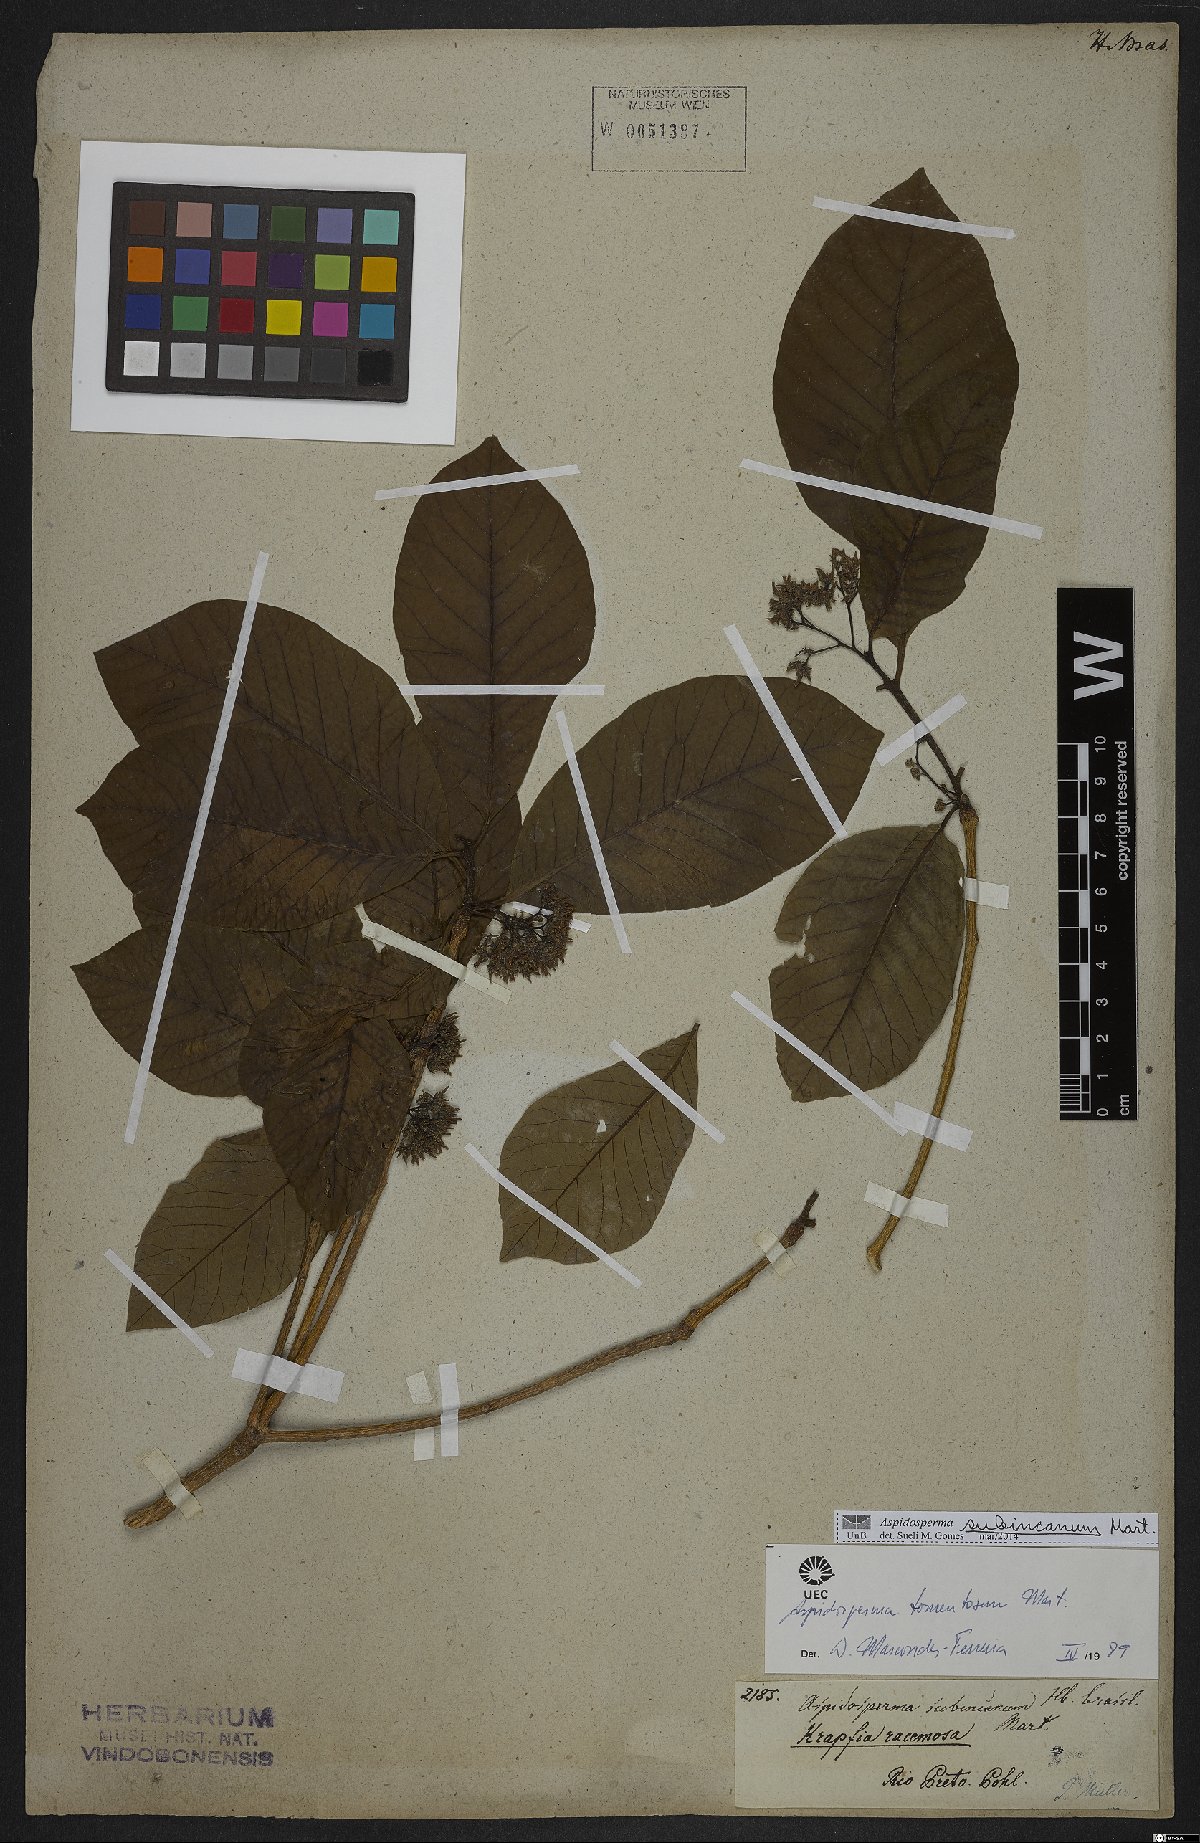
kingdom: Plantae
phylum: Tracheophyta
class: Magnoliopsida
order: Gentianales
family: Apocynaceae
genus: Aspidosperma
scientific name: Aspidosperma subincanum
